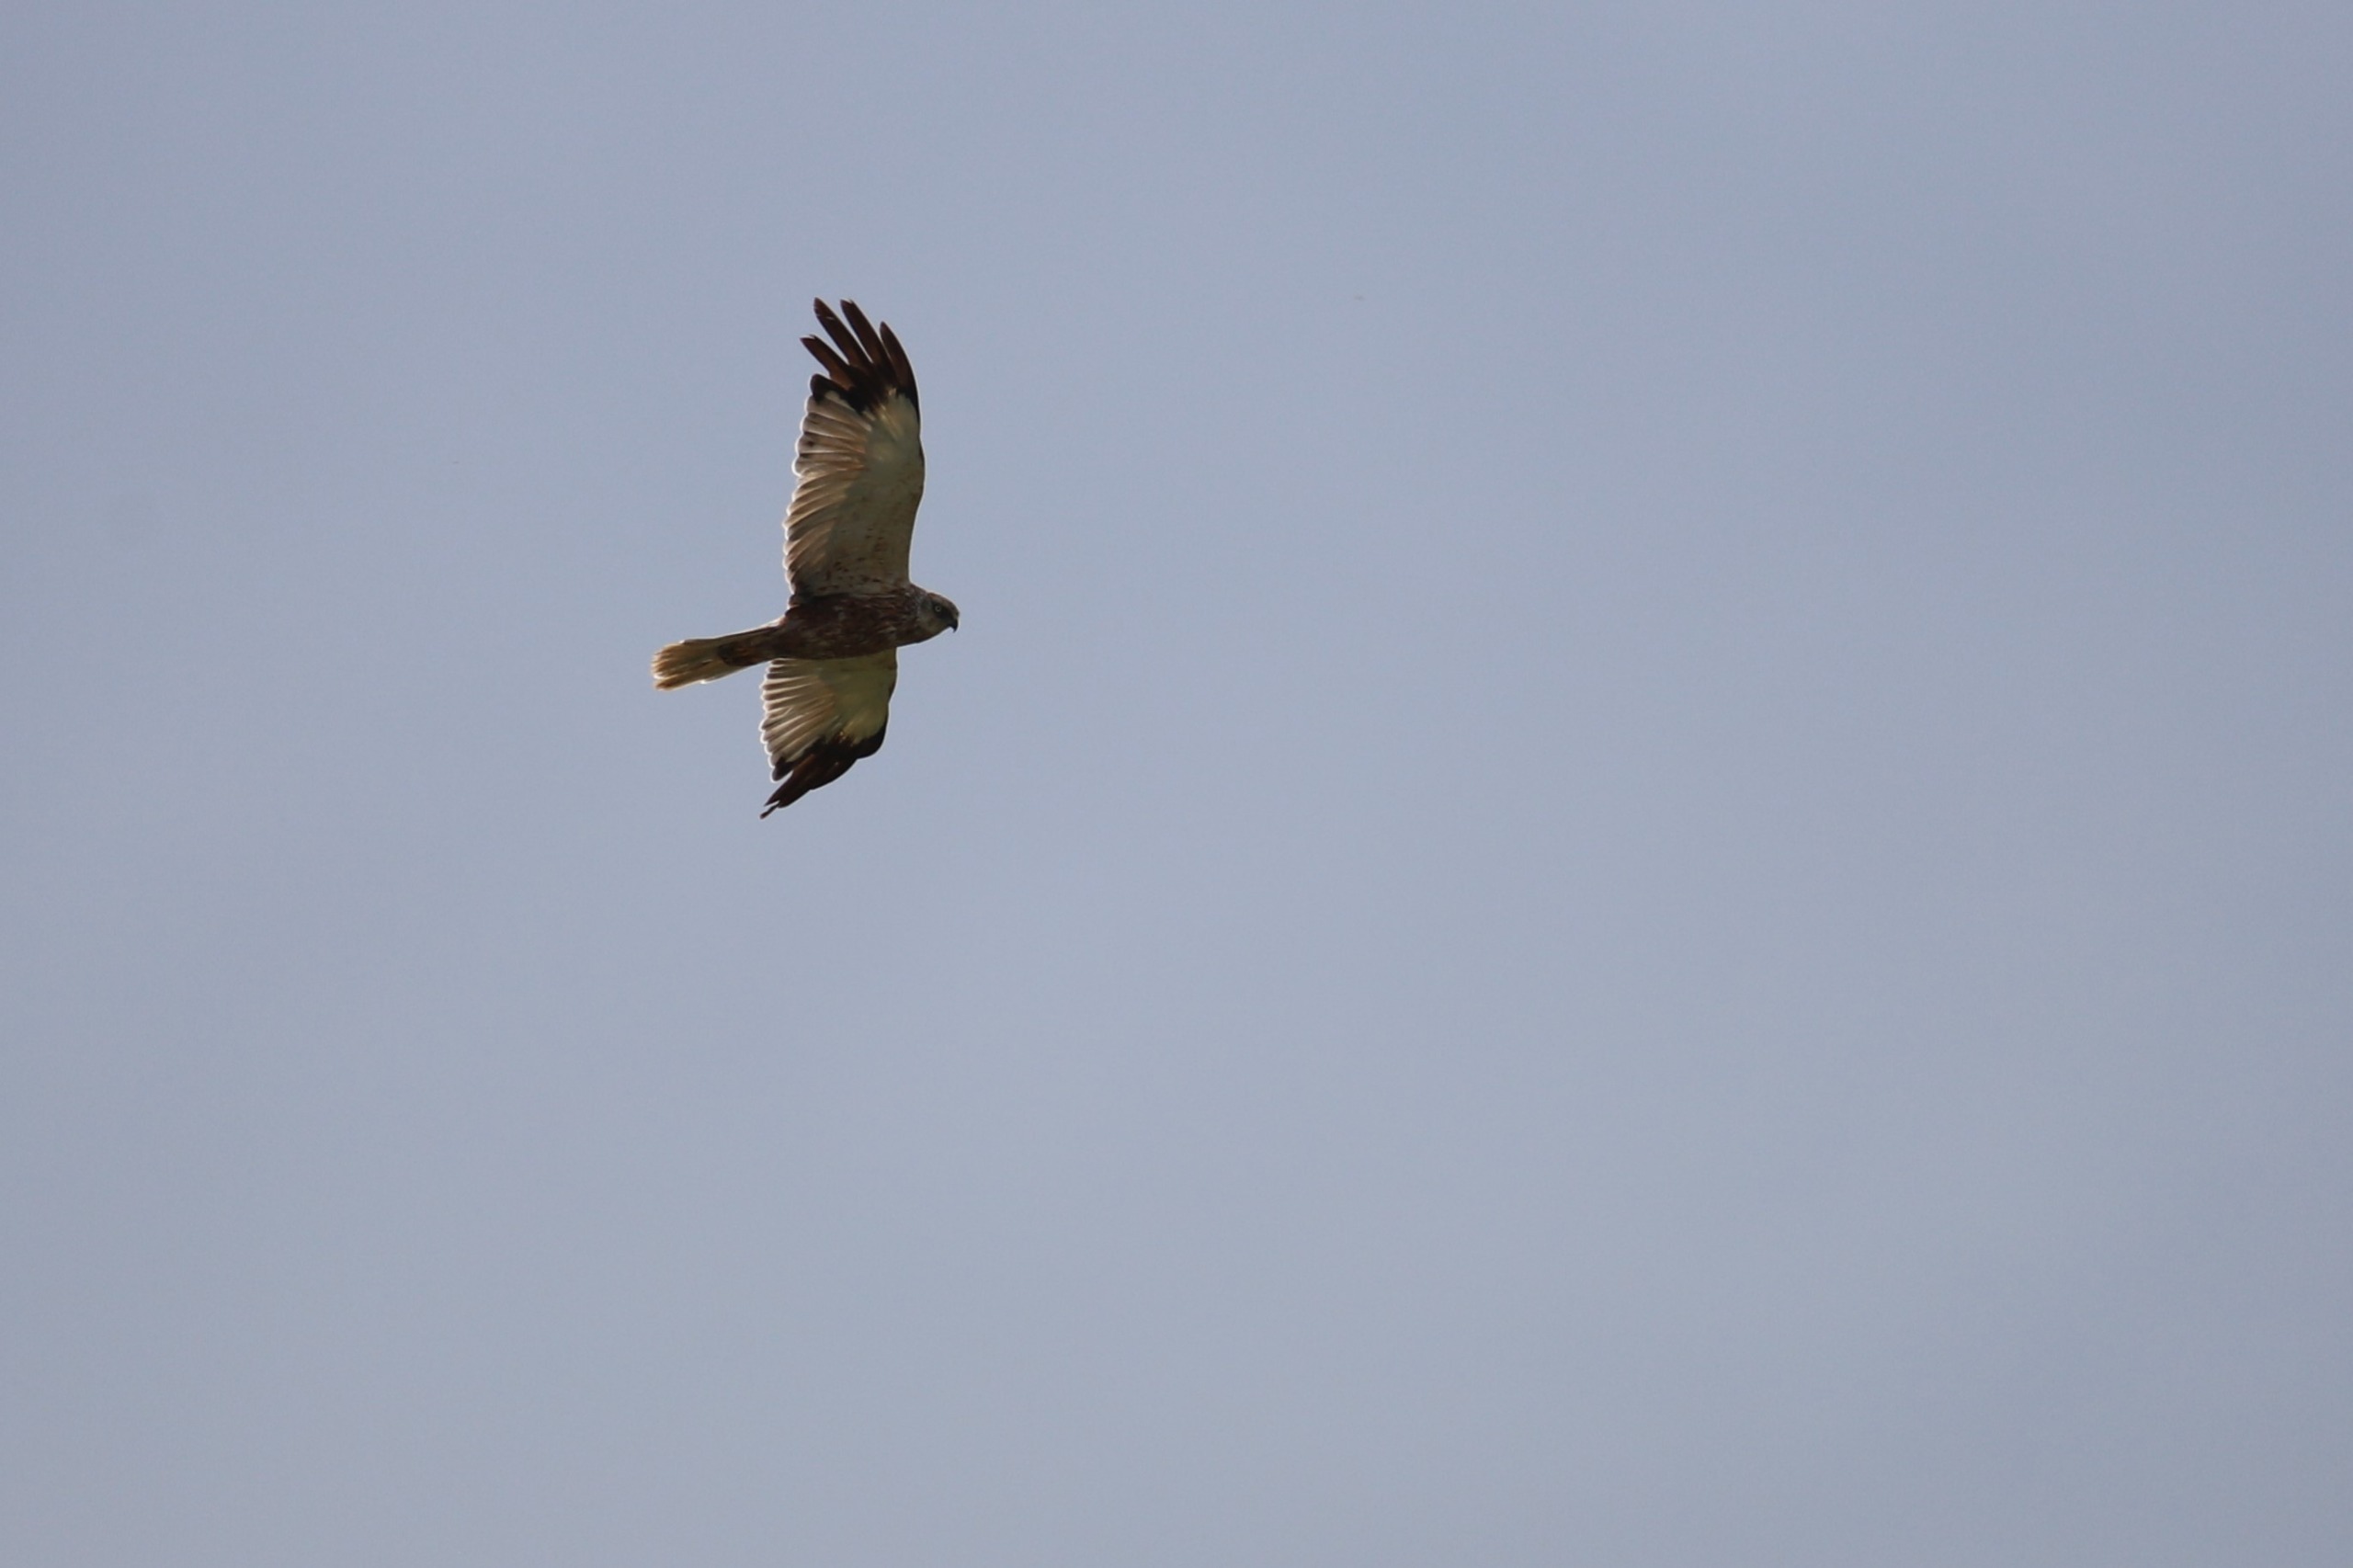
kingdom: Animalia
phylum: Chordata
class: Aves
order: Accipitriformes
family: Accipitridae
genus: Circus
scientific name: Circus aeruginosus
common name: Rørhøg
